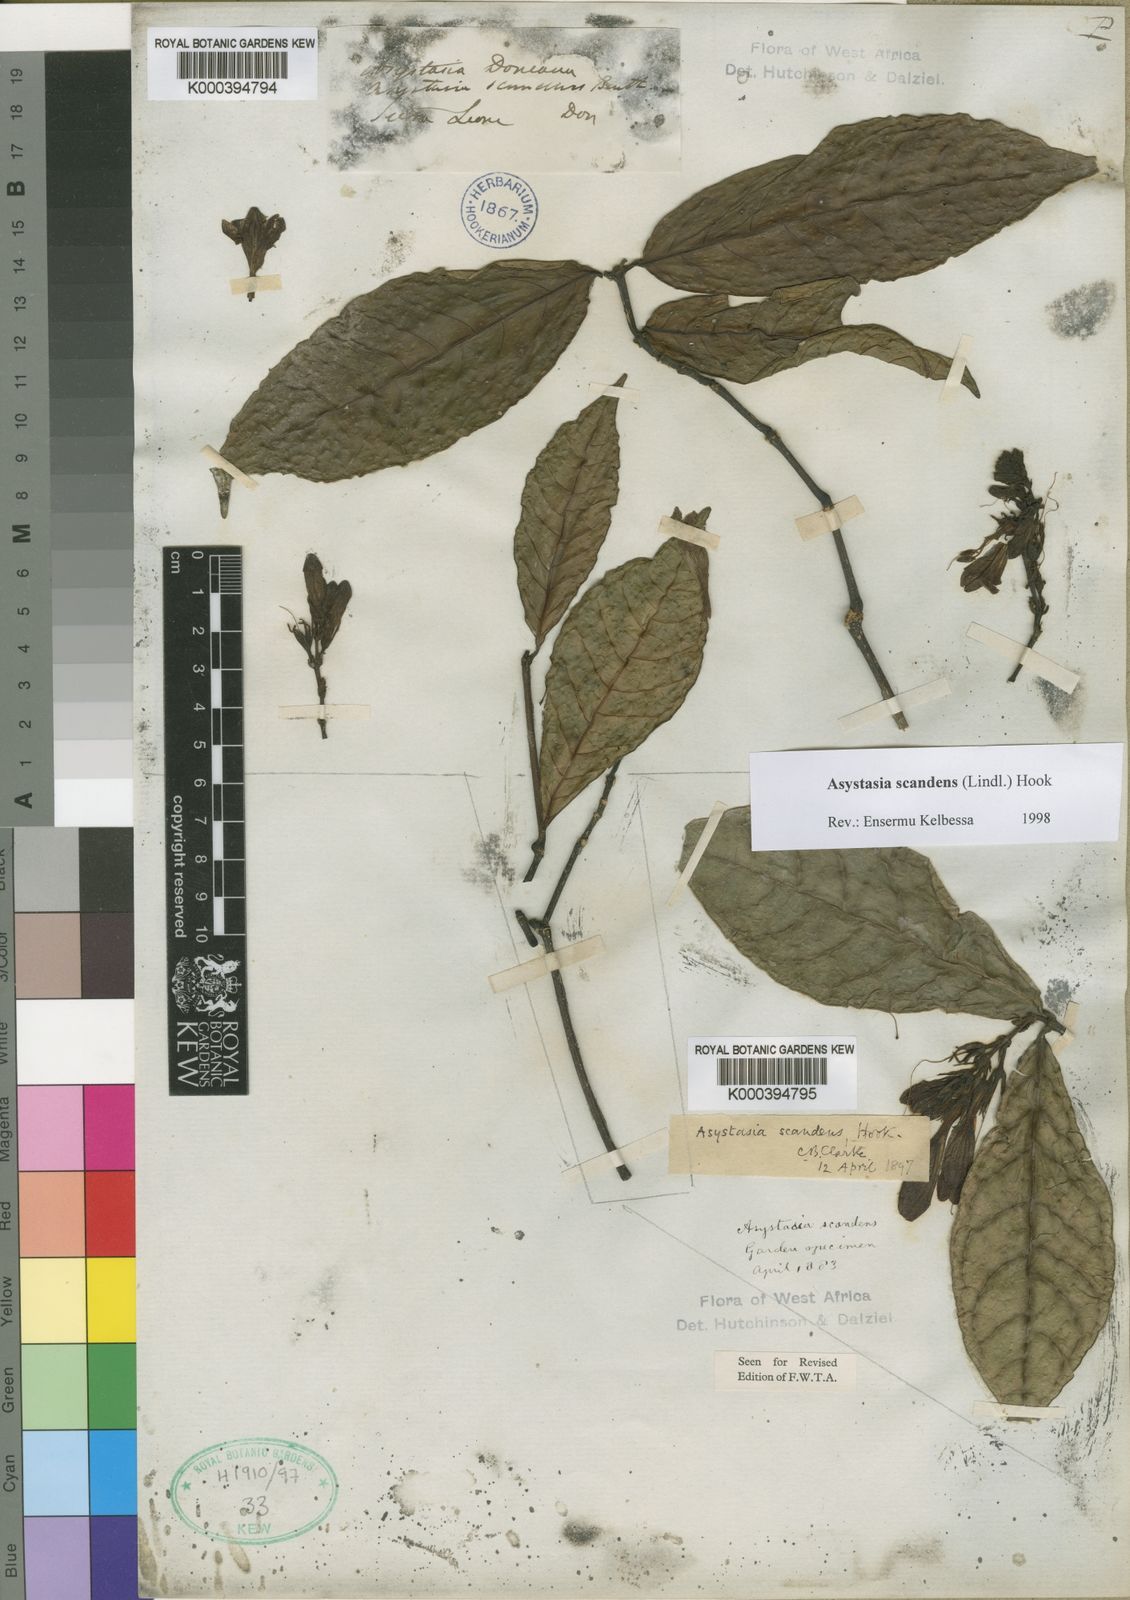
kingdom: Plantae
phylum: Tracheophyta
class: Magnoliopsida
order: Lamiales
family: Acanthaceae
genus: Asystasia
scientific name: Asystasia scandens
